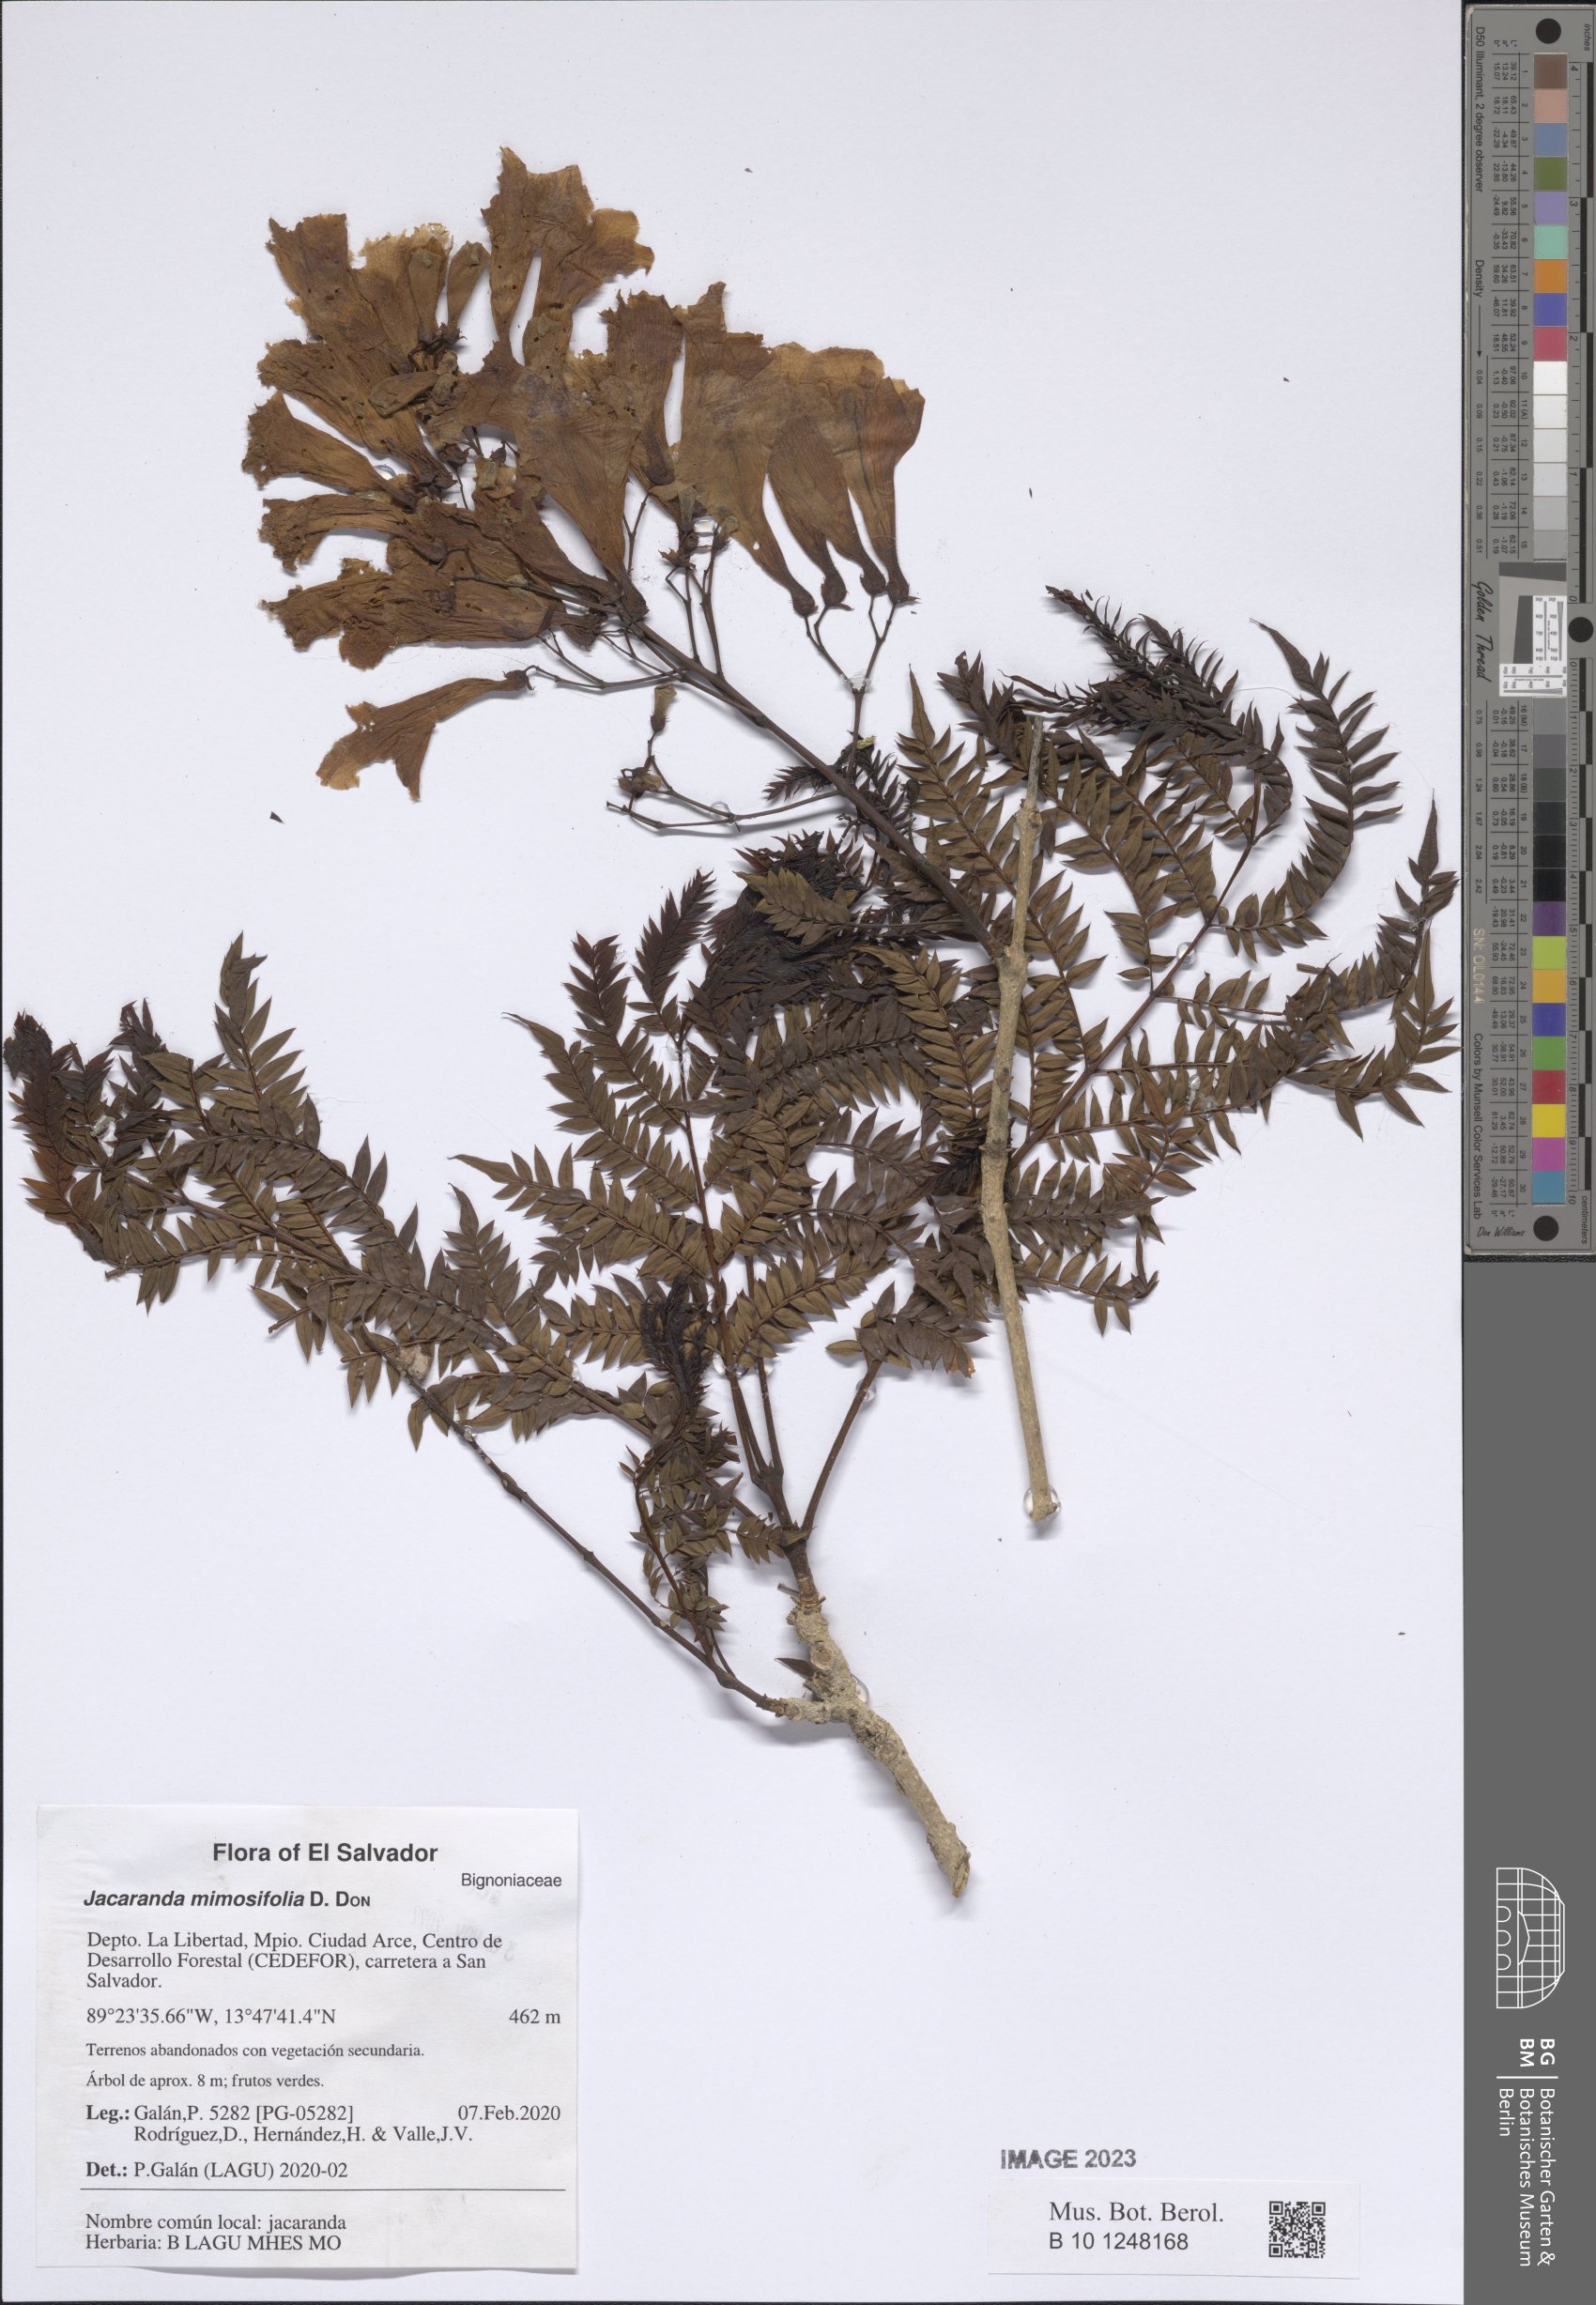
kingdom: Plantae
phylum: Tracheophyta
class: Magnoliopsida
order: Lamiales
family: Bignoniaceae
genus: Jacaranda
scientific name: Jacaranda mimosifolia
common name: Black poui
